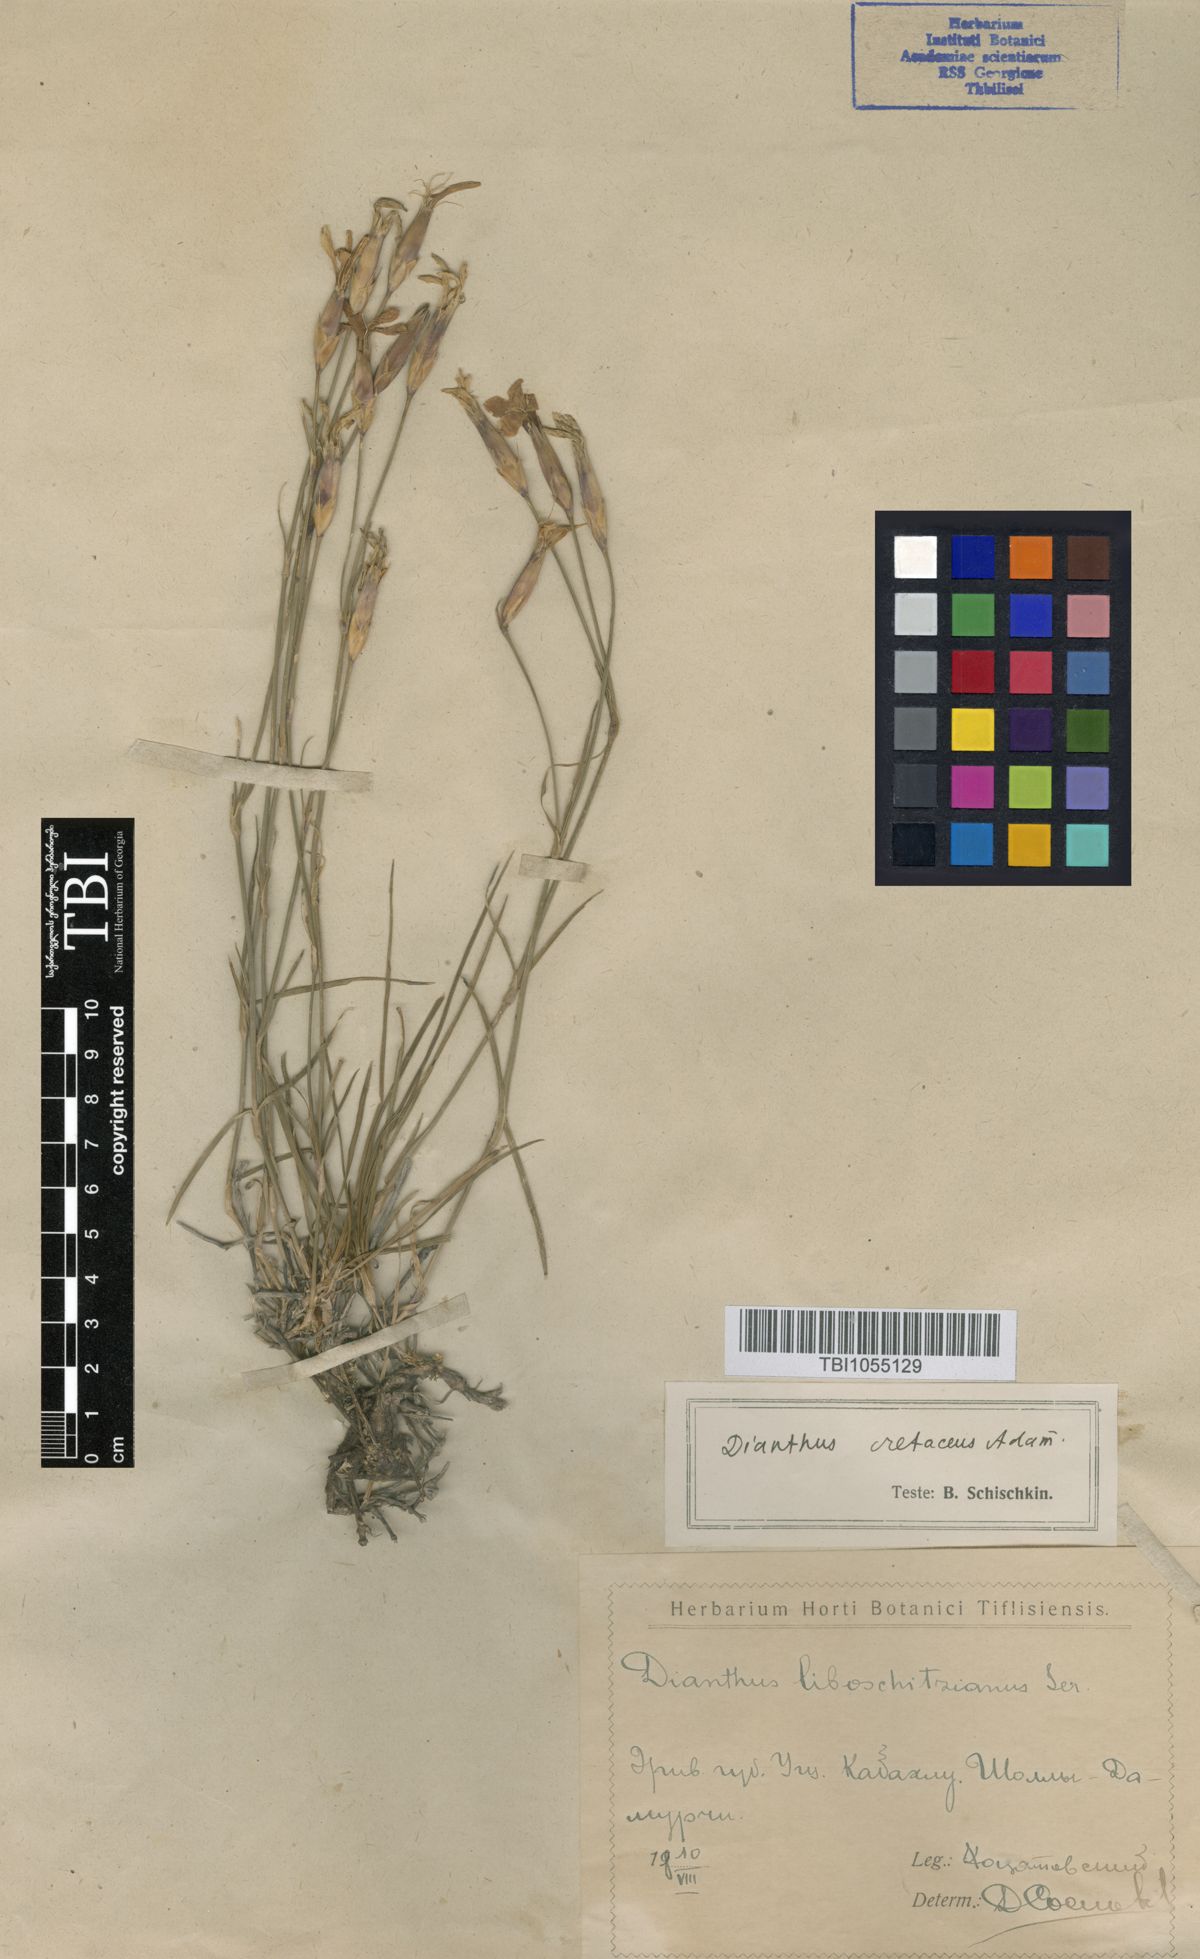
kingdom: Plantae
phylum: Tracheophyta
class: Magnoliopsida
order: Caryophyllales
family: Caryophyllaceae
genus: Dianthus
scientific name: Dianthus cretaceus
